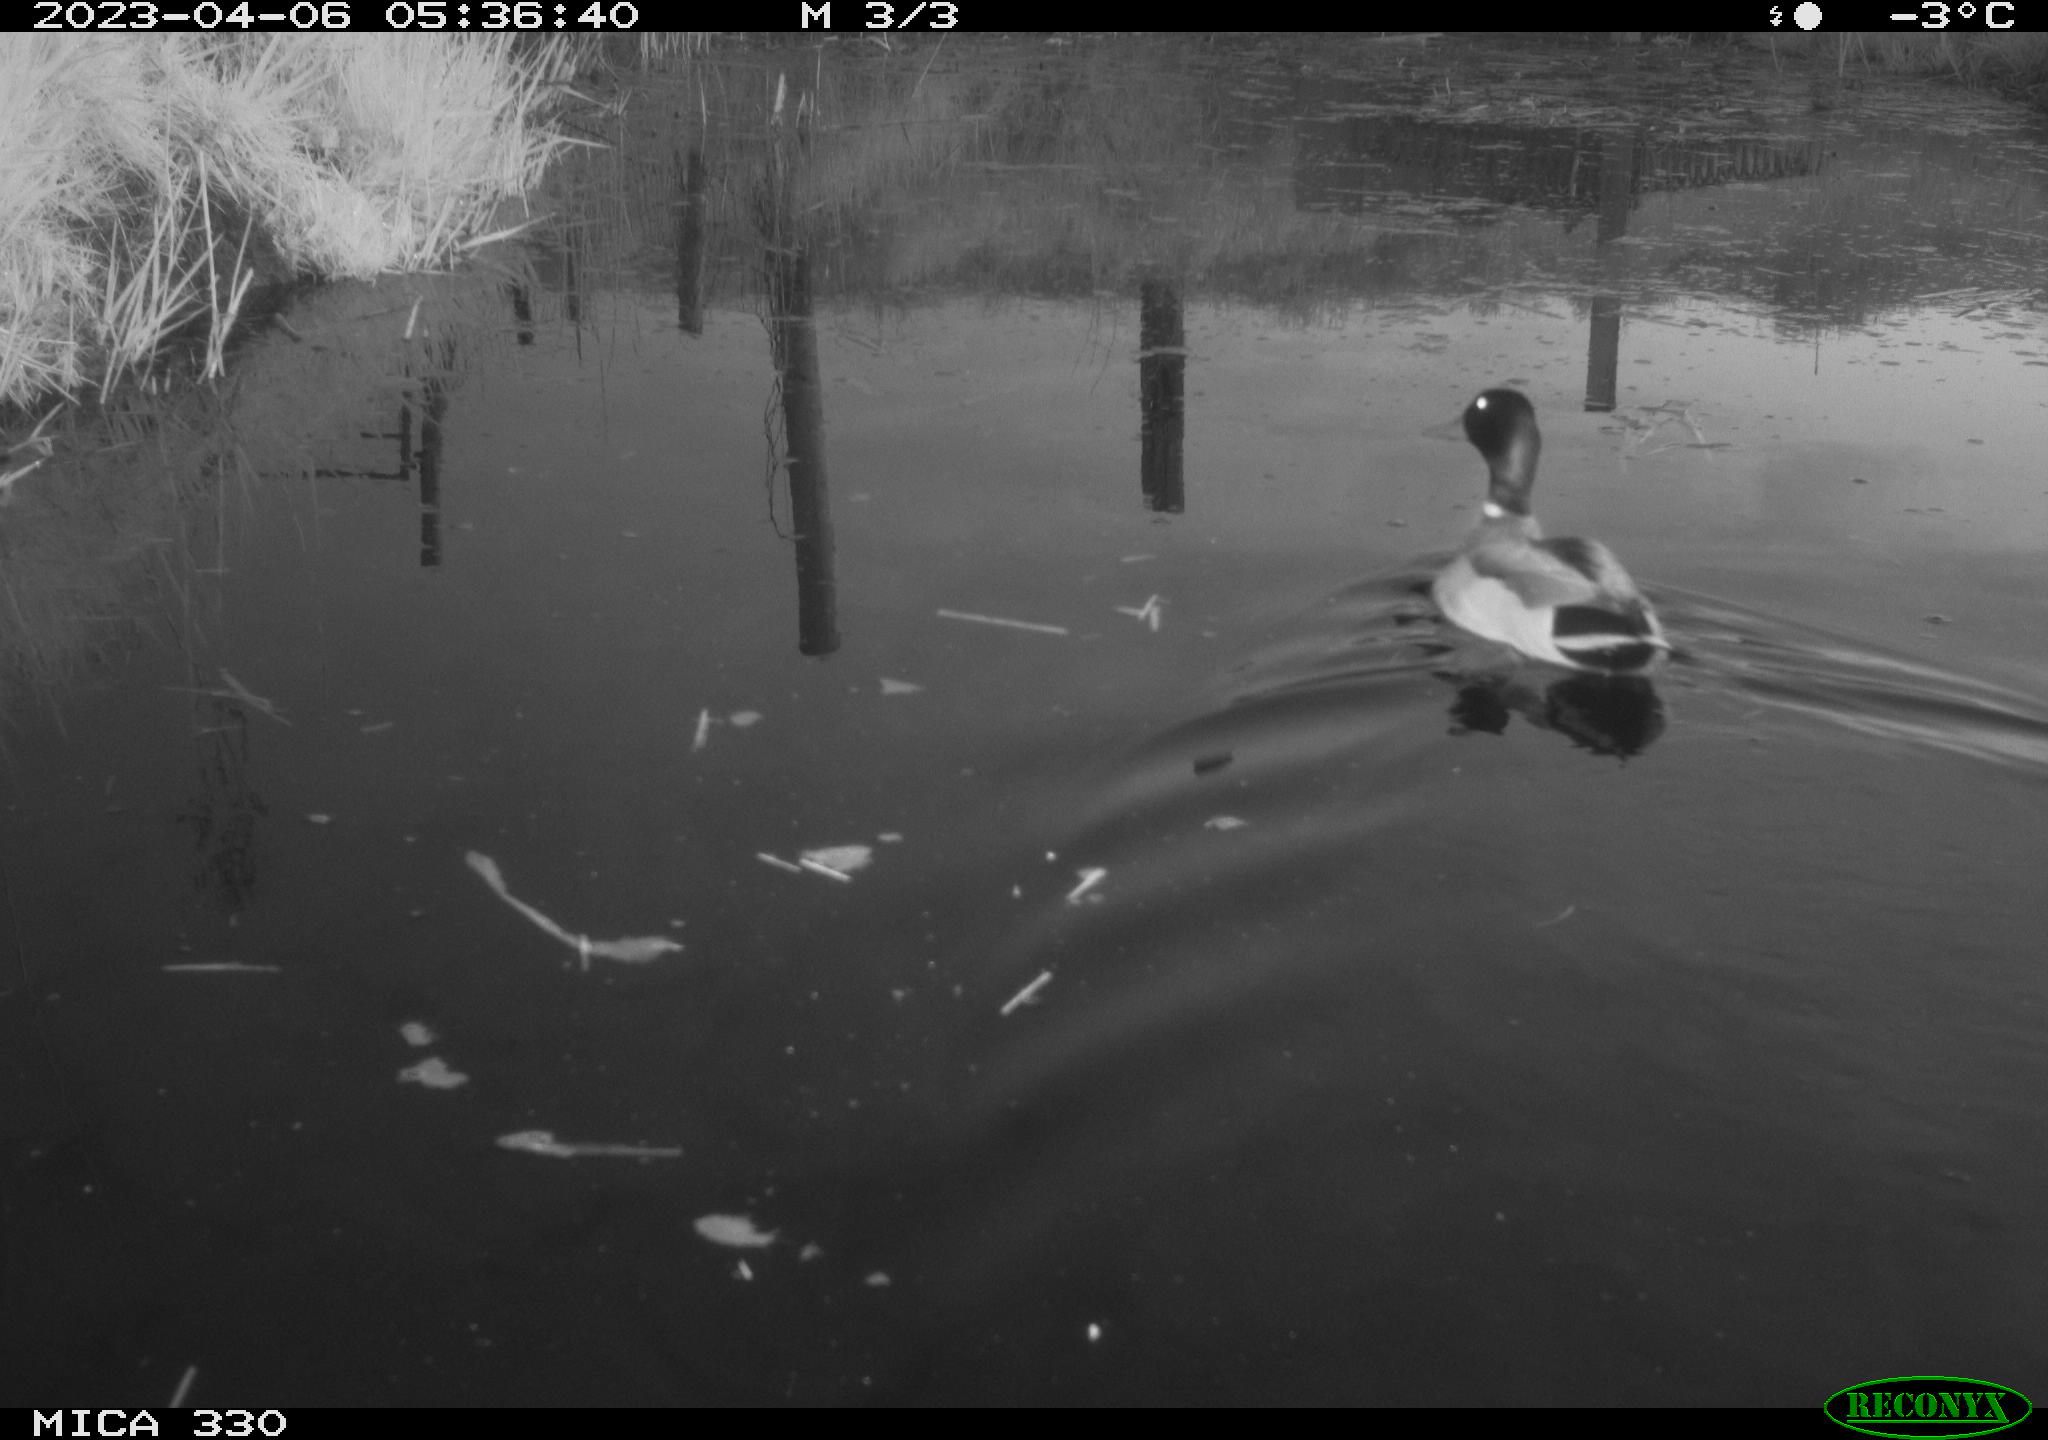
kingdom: Animalia
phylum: Chordata
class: Aves
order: Anseriformes
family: Anatidae
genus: Anas
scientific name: Anas
